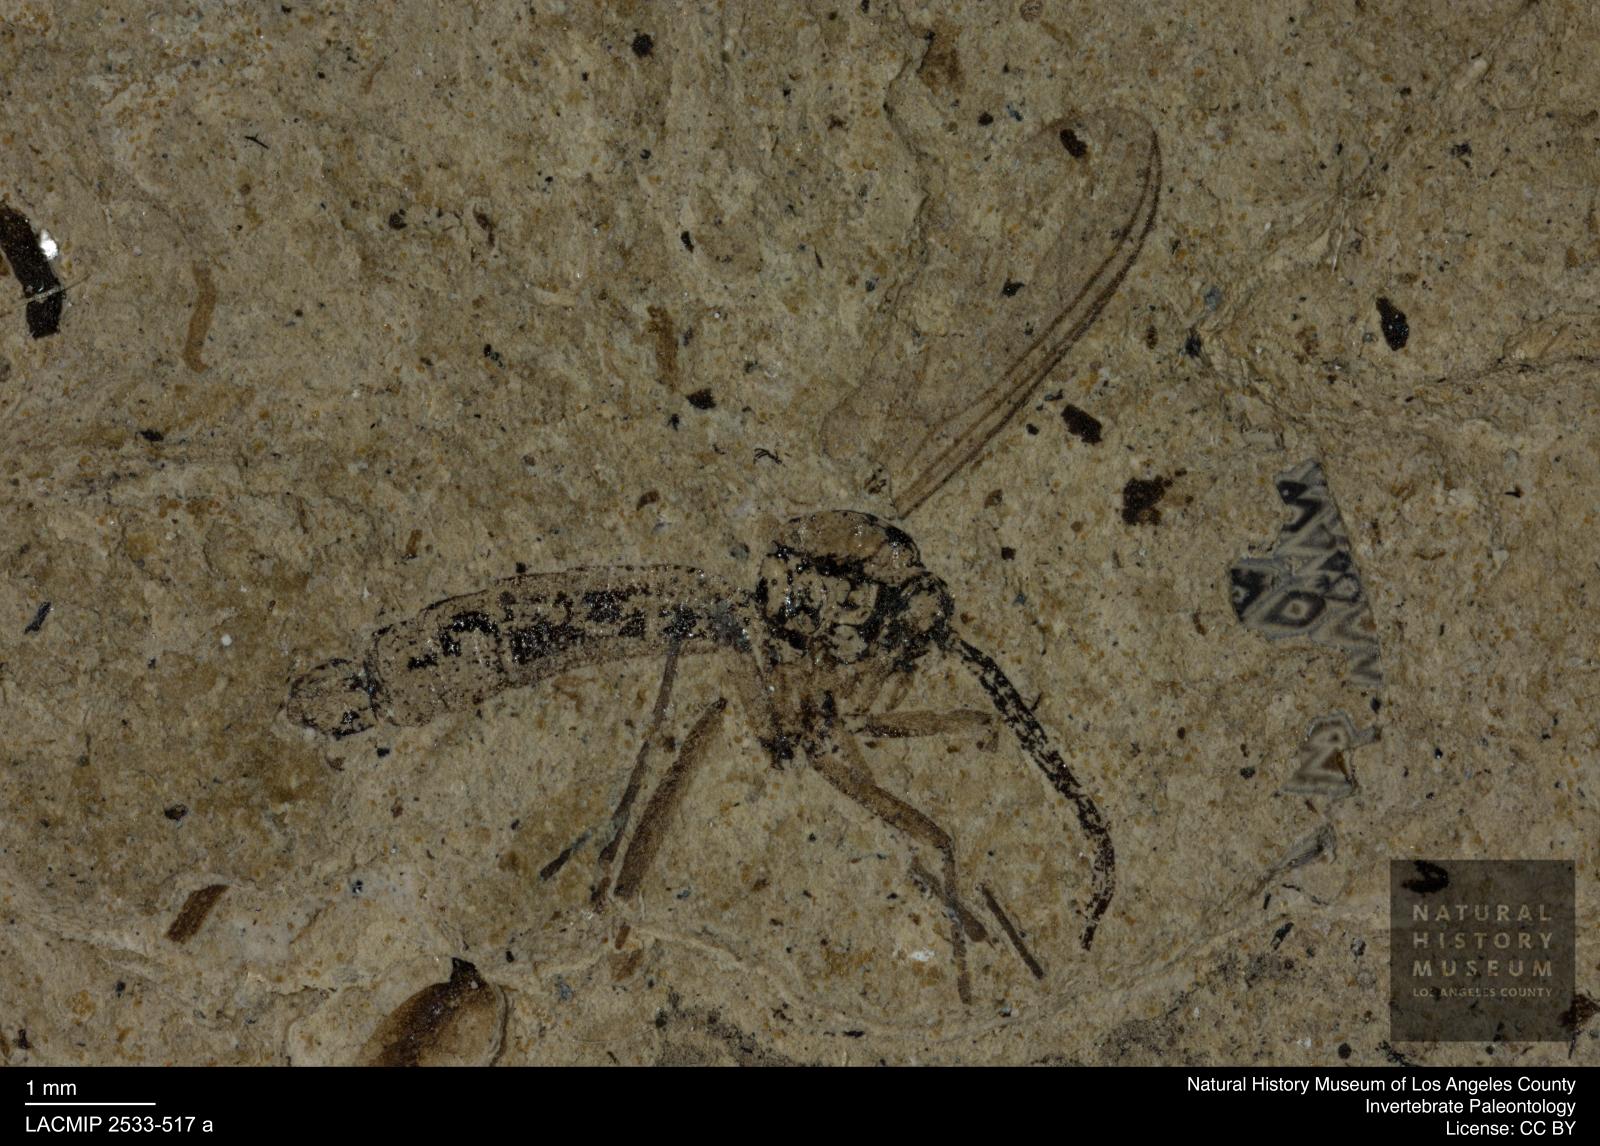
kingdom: Animalia
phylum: Arthropoda
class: Insecta
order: Diptera
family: Mycetophilidae
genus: Boletina
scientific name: Boletina longicornis
